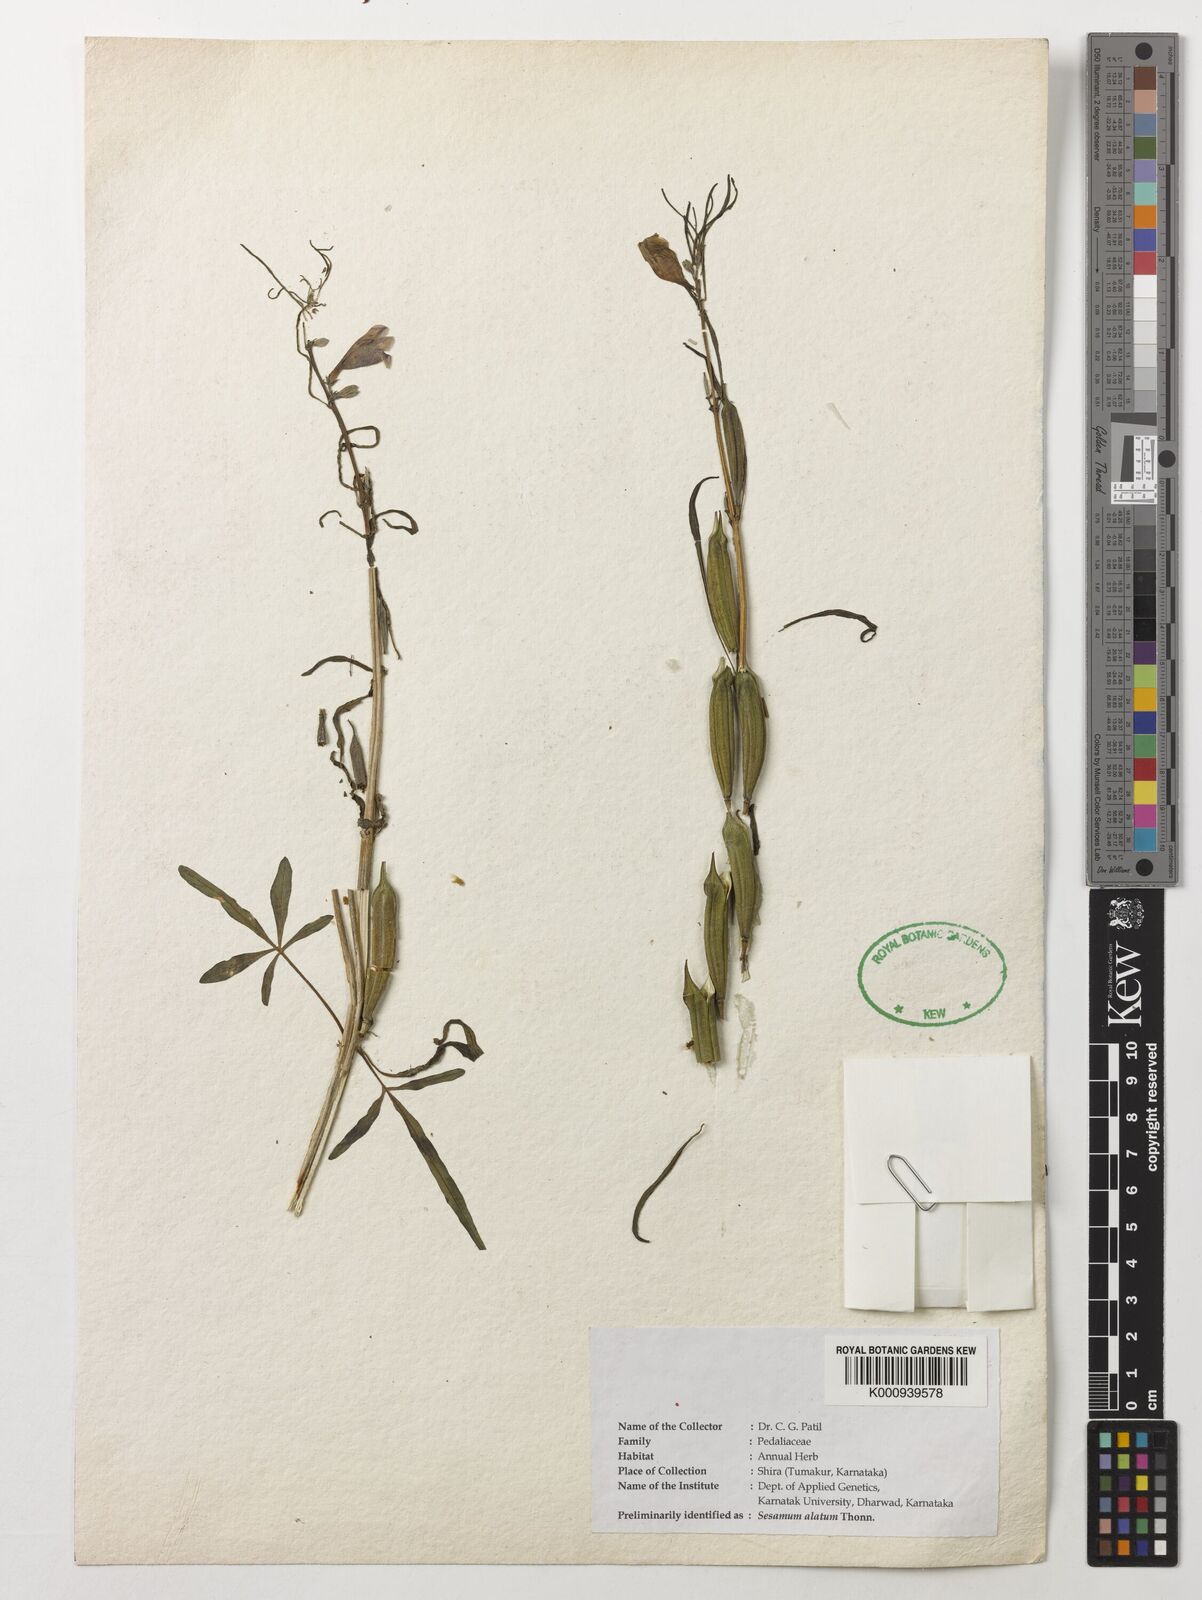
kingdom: Plantae
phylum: Tracheophyta
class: Magnoliopsida
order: Lamiales
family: Pedaliaceae
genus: Sesamum
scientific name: Sesamum alatum
